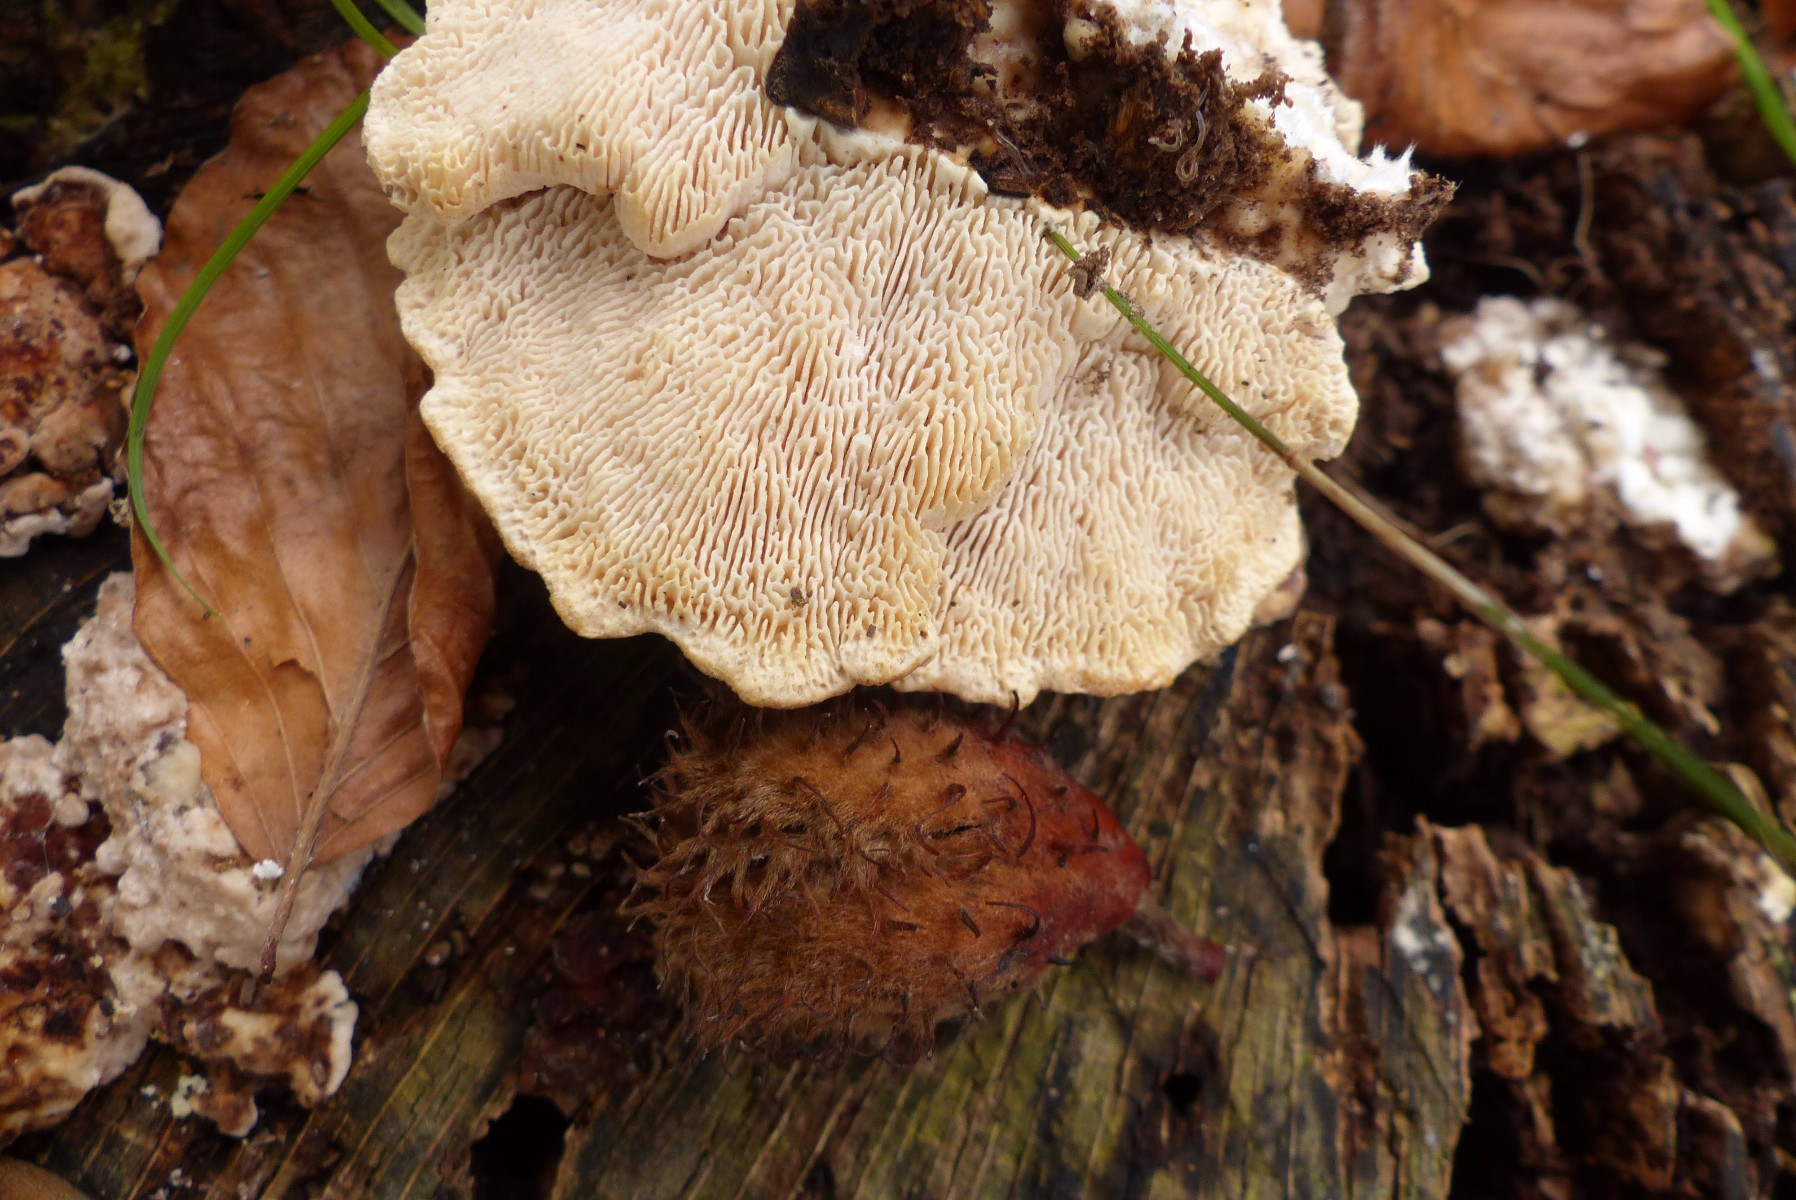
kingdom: Fungi
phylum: Basidiomycota
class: Agaricomycetes
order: Polyporales
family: Polyporaceae
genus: Trametes
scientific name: Trametes gibbosa
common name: puklet læderporesvamp
